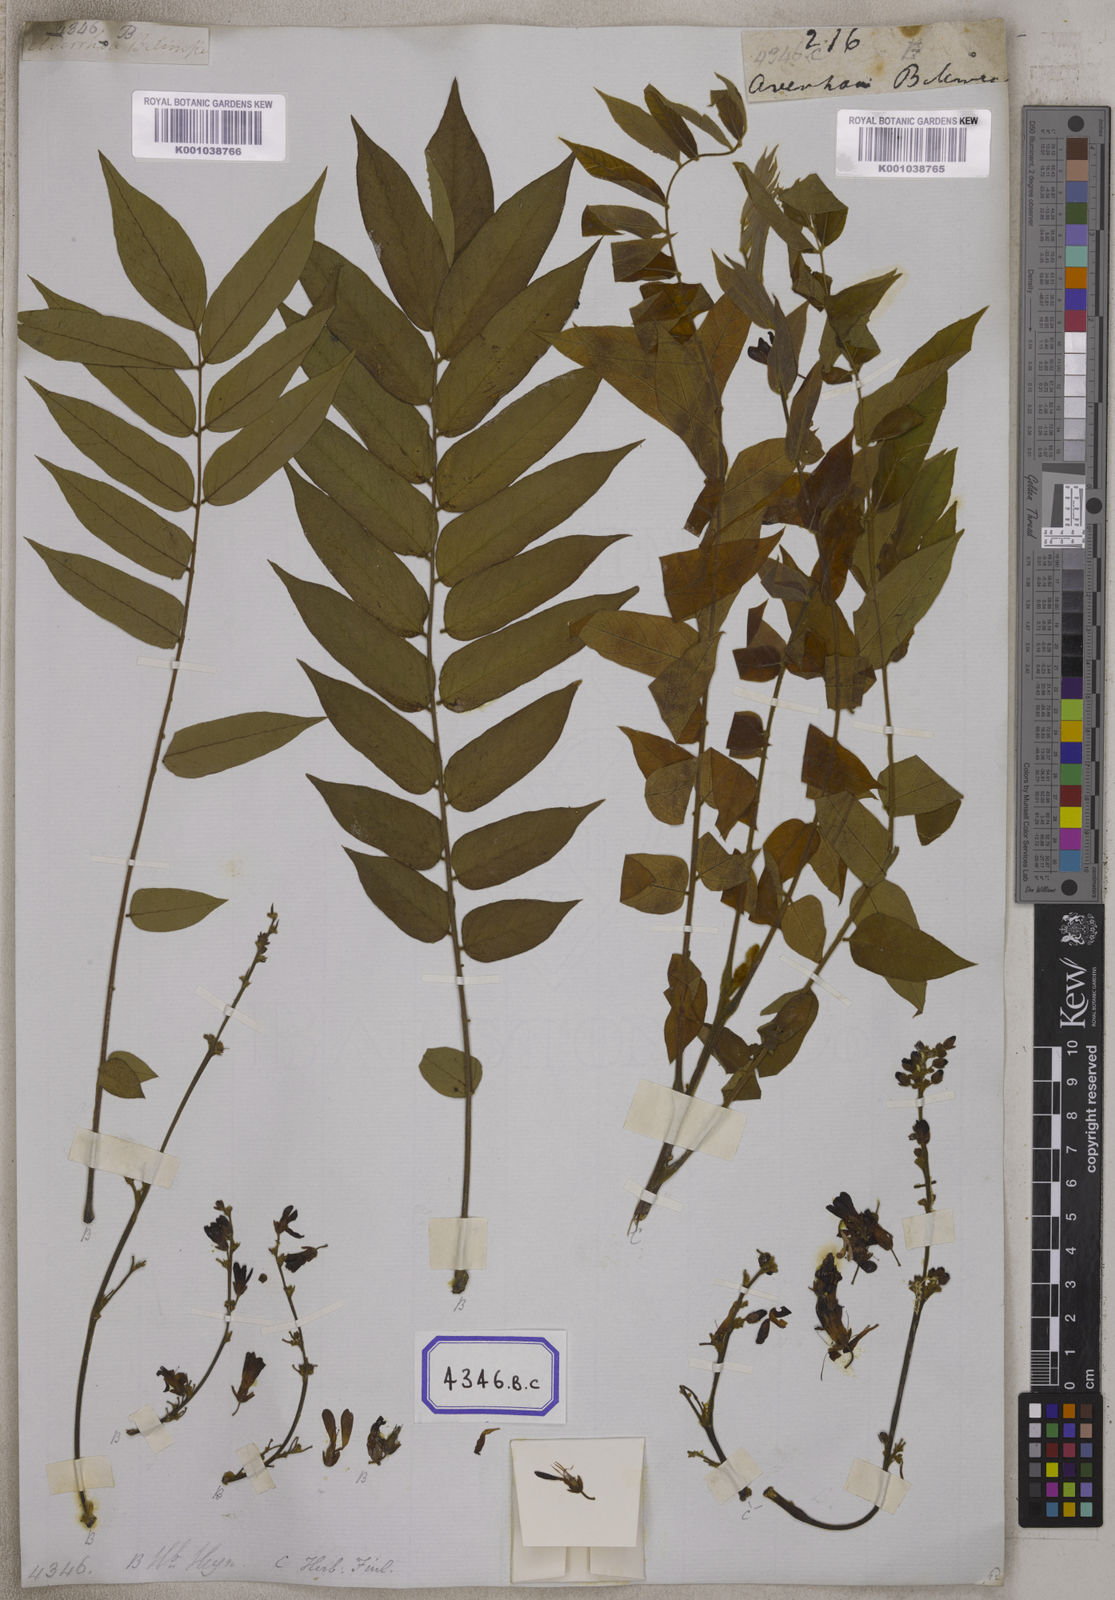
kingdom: Plantae
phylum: Tracheophyta
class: Magnoliopsida
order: Oxalidales
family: Oxalidaceae
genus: Averrhoa
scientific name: Averrhoa bilimbi
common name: Bilimbi
